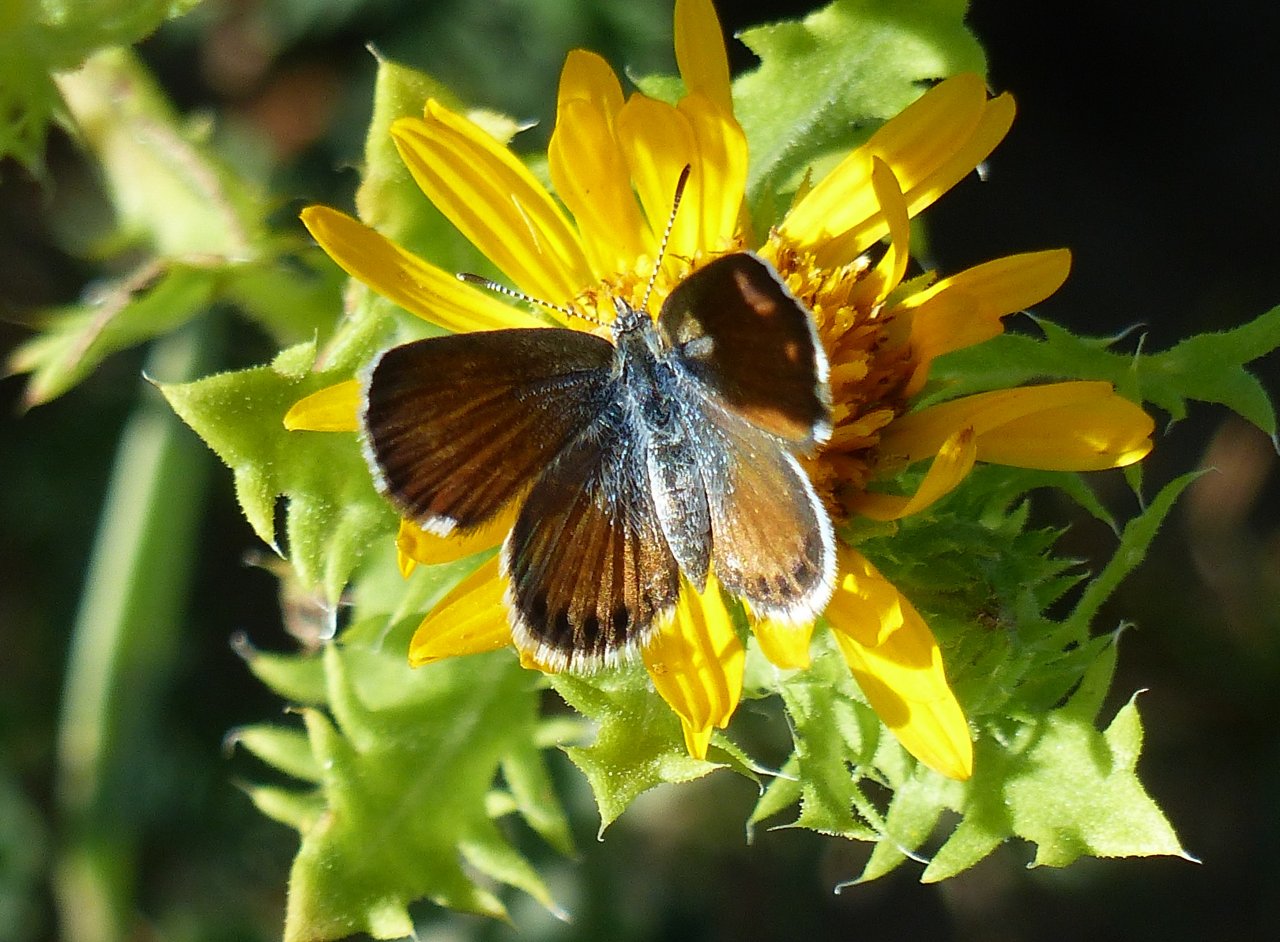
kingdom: Animalia
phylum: Arthropoda
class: Insecta
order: Lepidoptera
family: Lycaenidae
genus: Brephidium
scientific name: Brephidium exilis
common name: Western Pygmy-Blue
